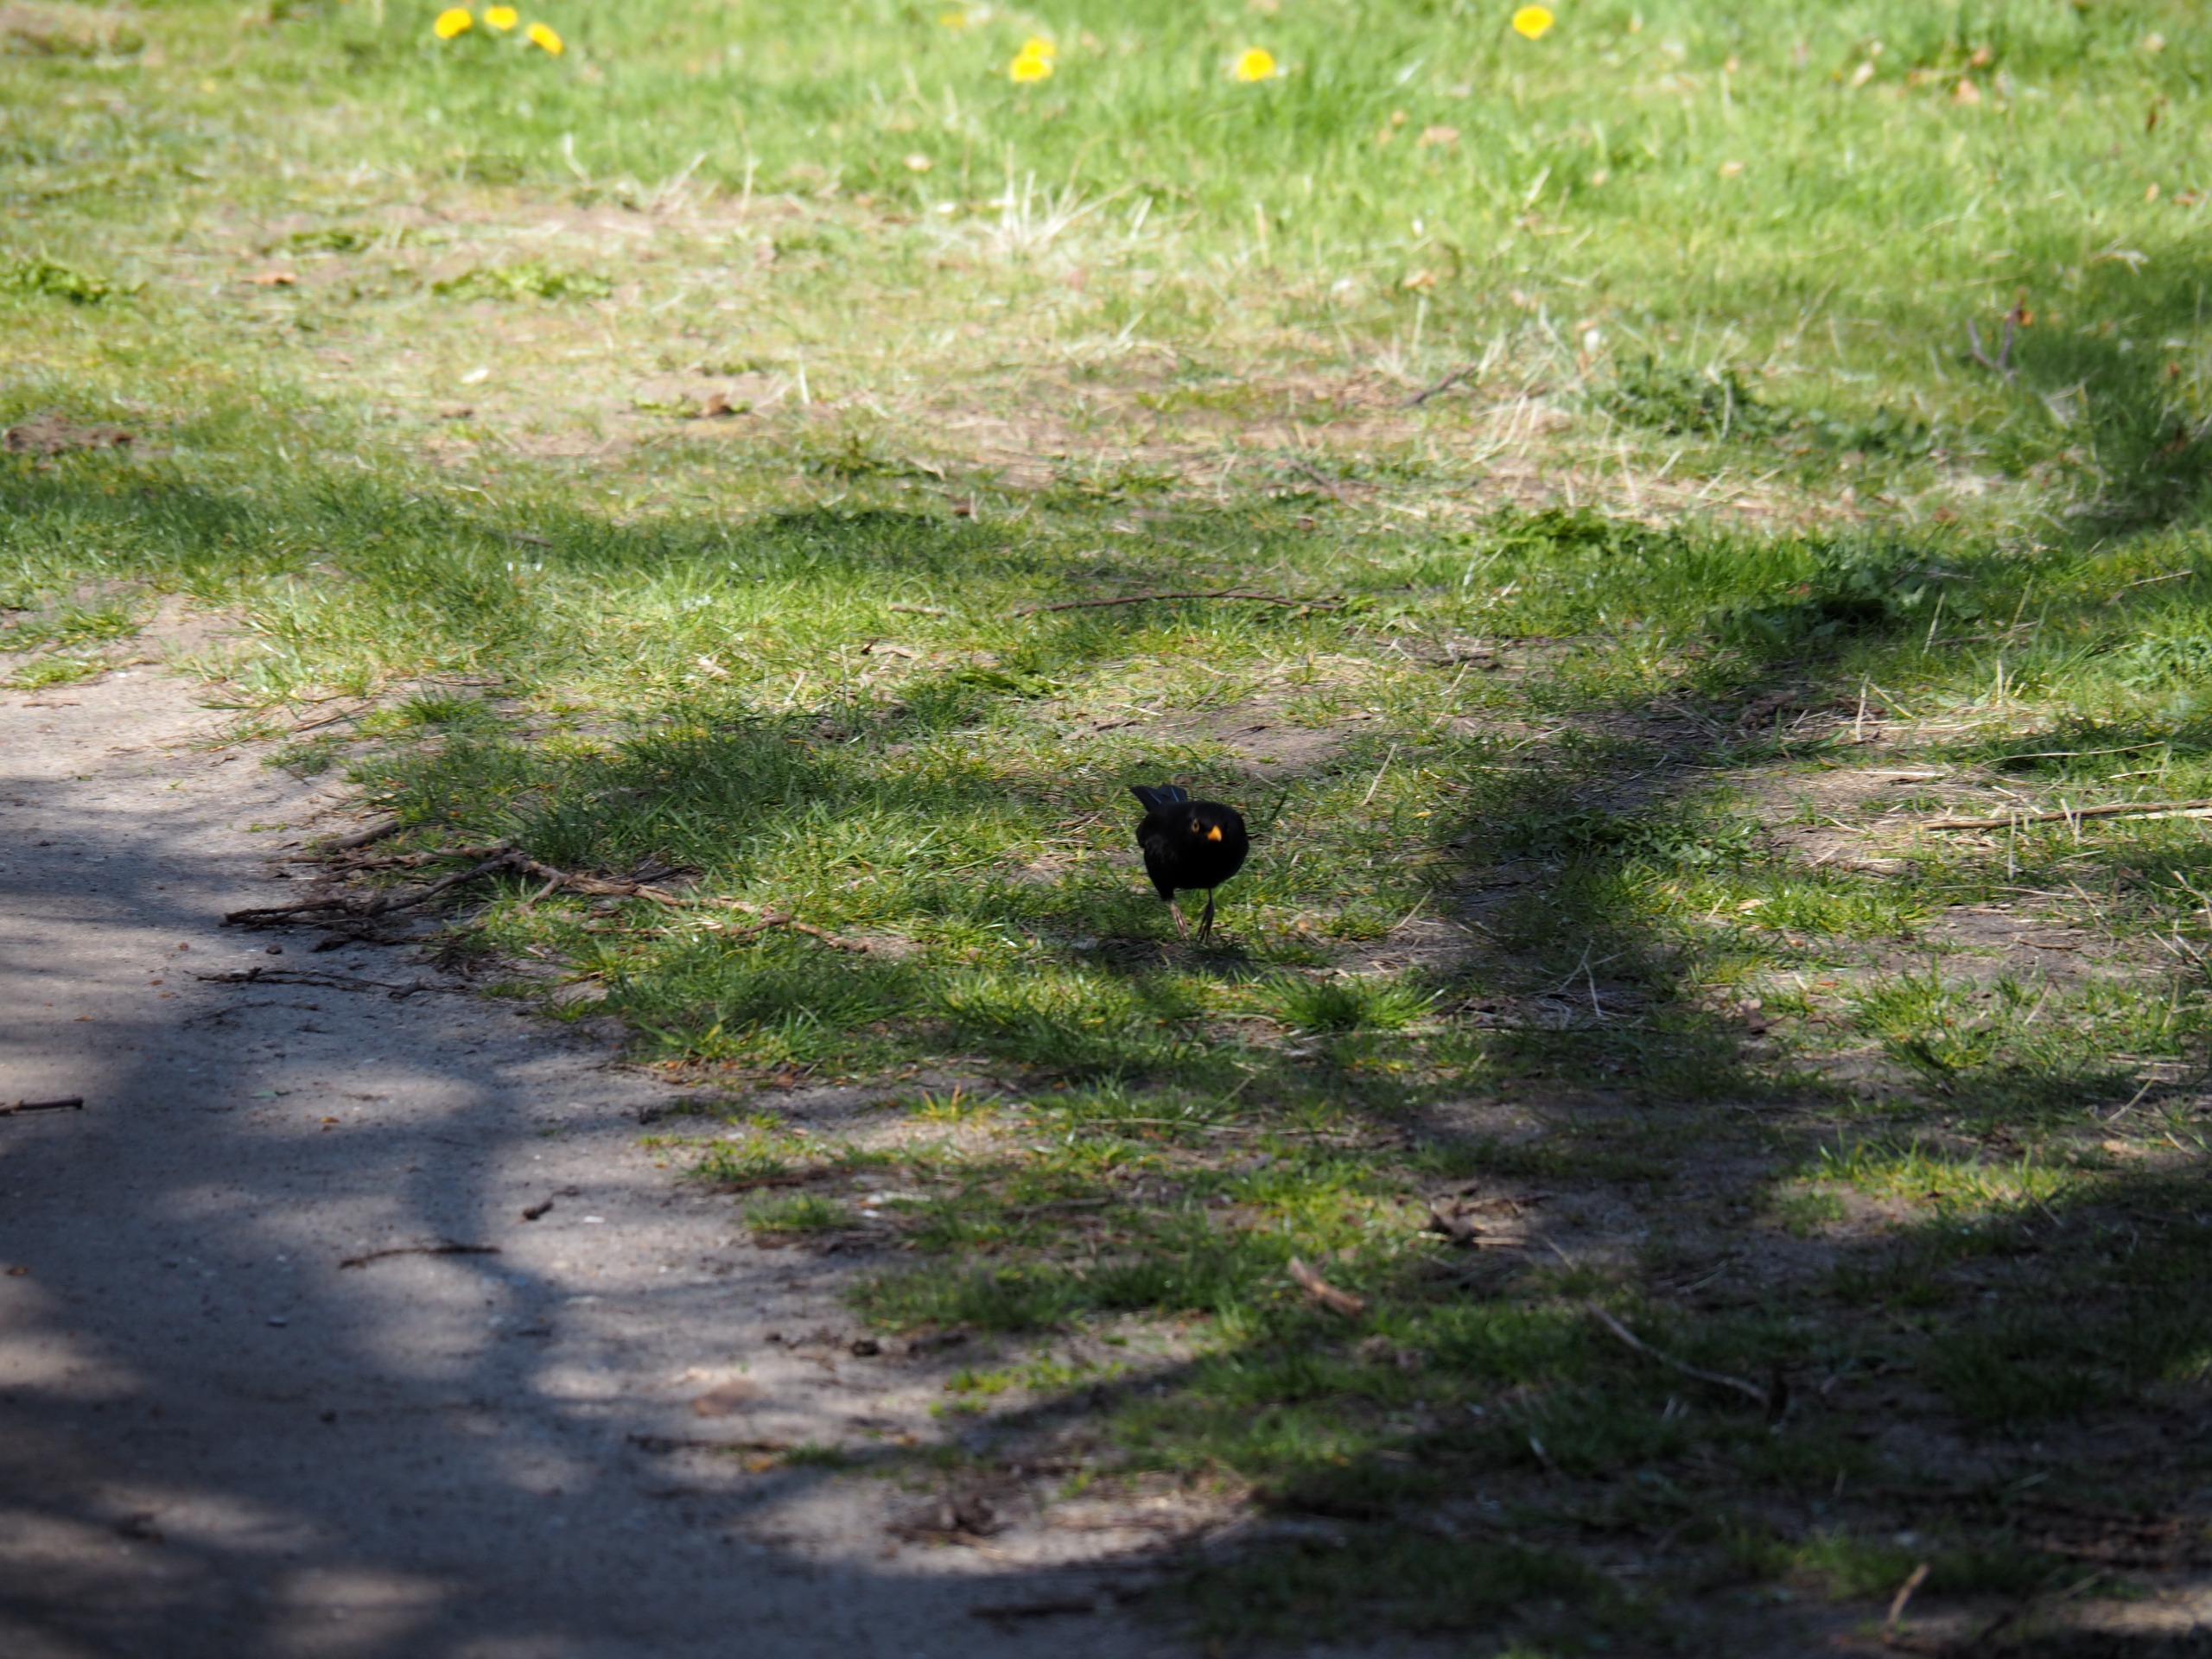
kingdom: Animalia
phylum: Chordata
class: Aves
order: Passeriformes
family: Turdidae
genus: Turdus
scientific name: Turdus merula
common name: Solsort
